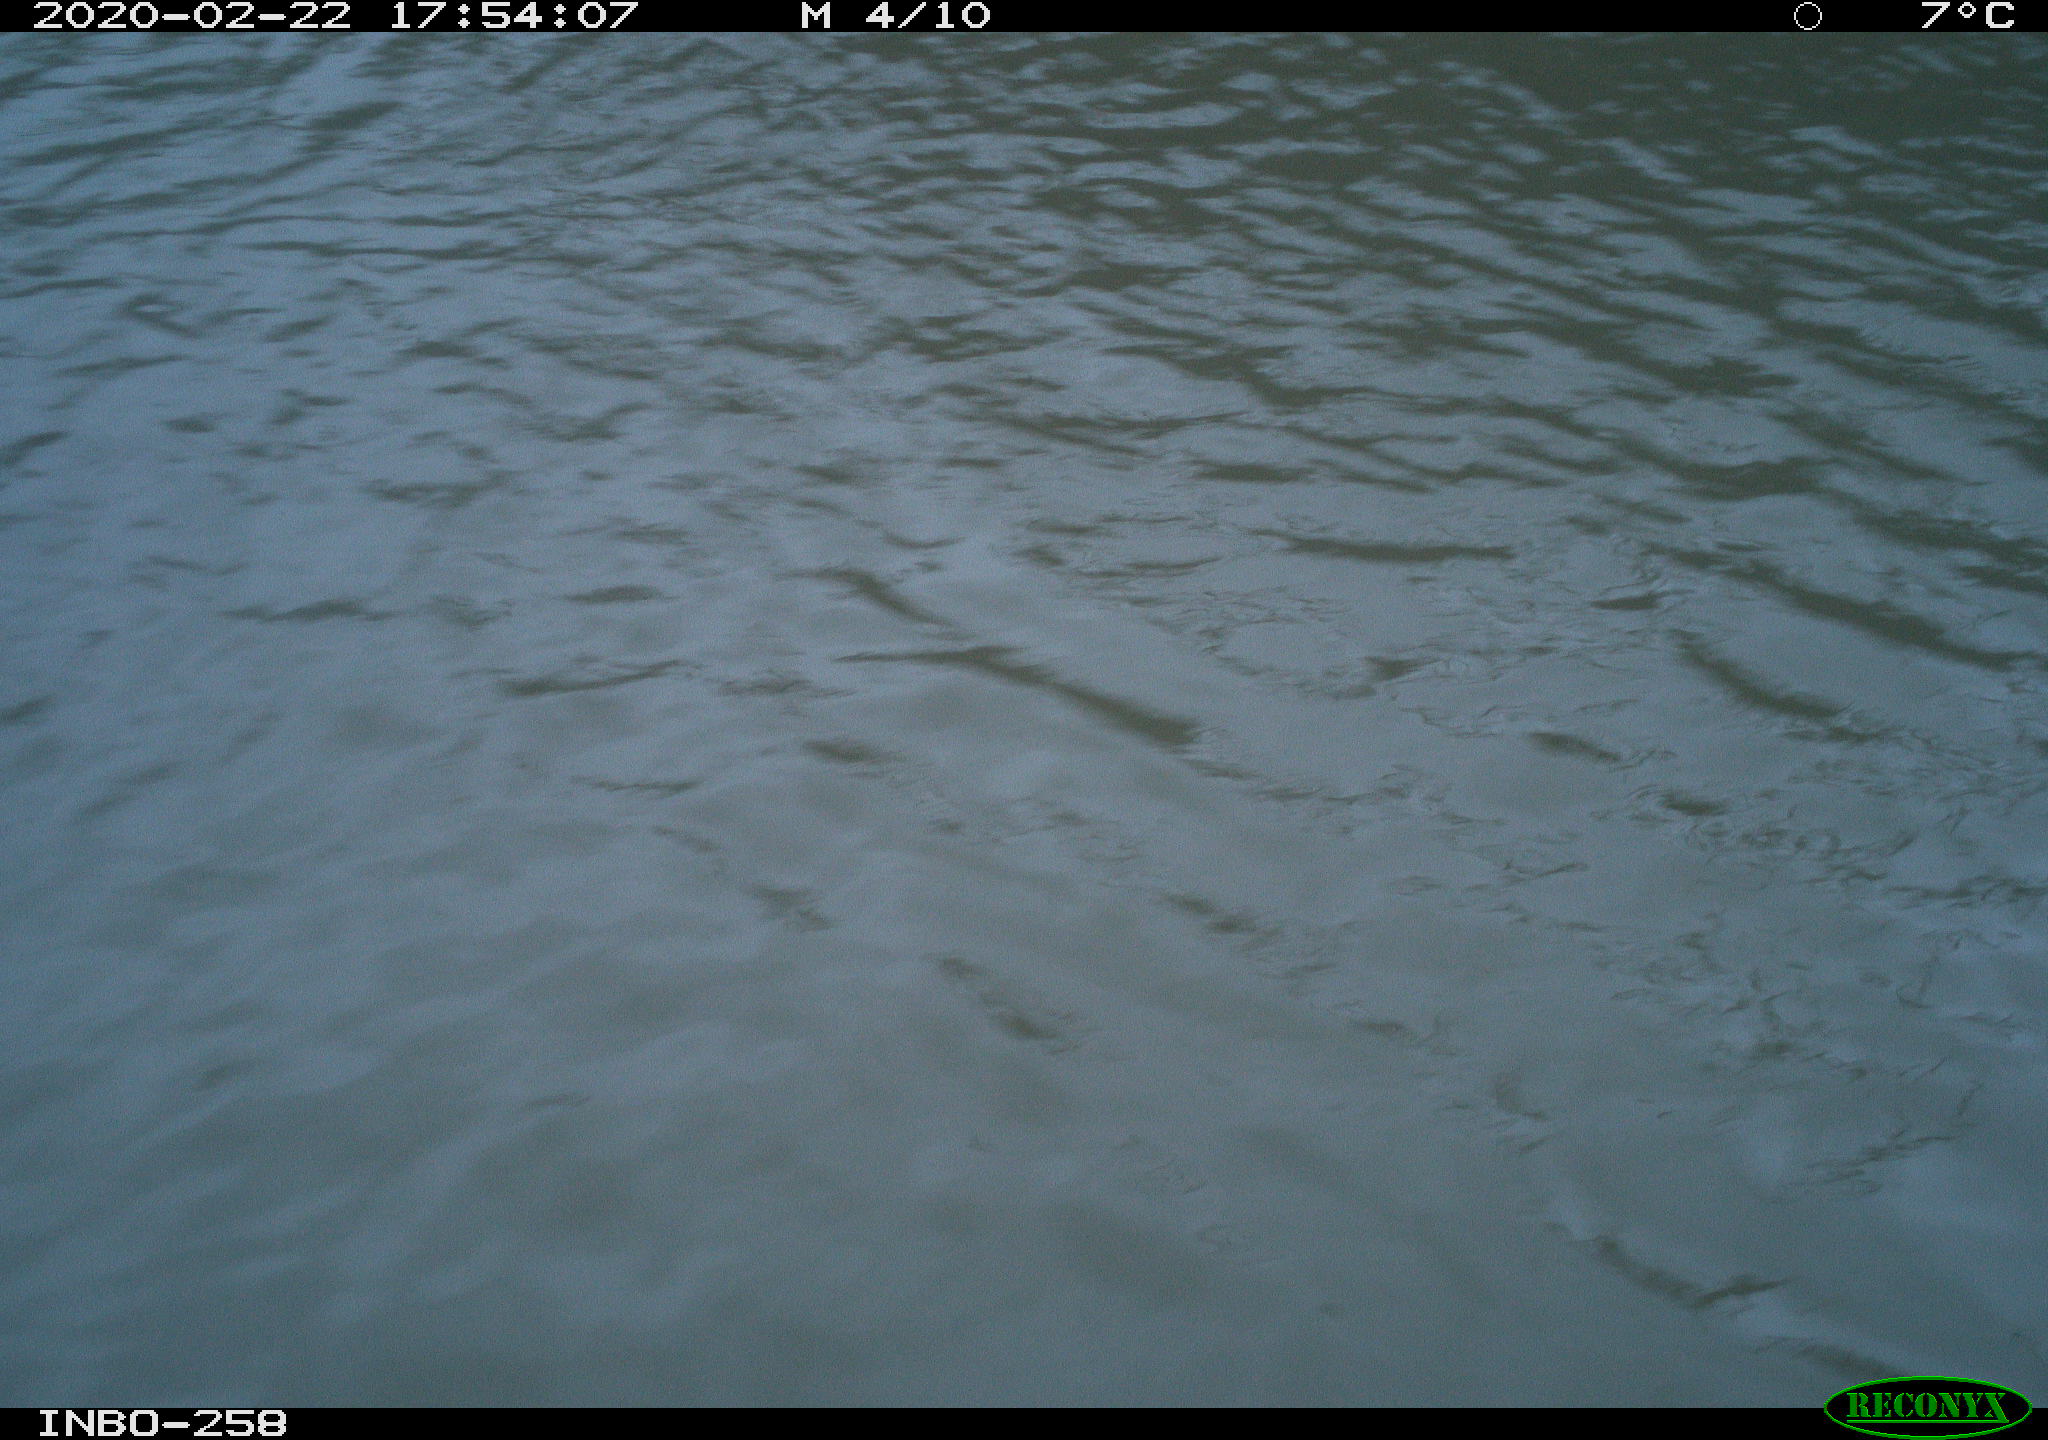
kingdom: Animalia
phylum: Chordata
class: Aves
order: Gruiformes
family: Rallidae
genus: Gallinula
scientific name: Gallinula chloropus
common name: Common moorhen
